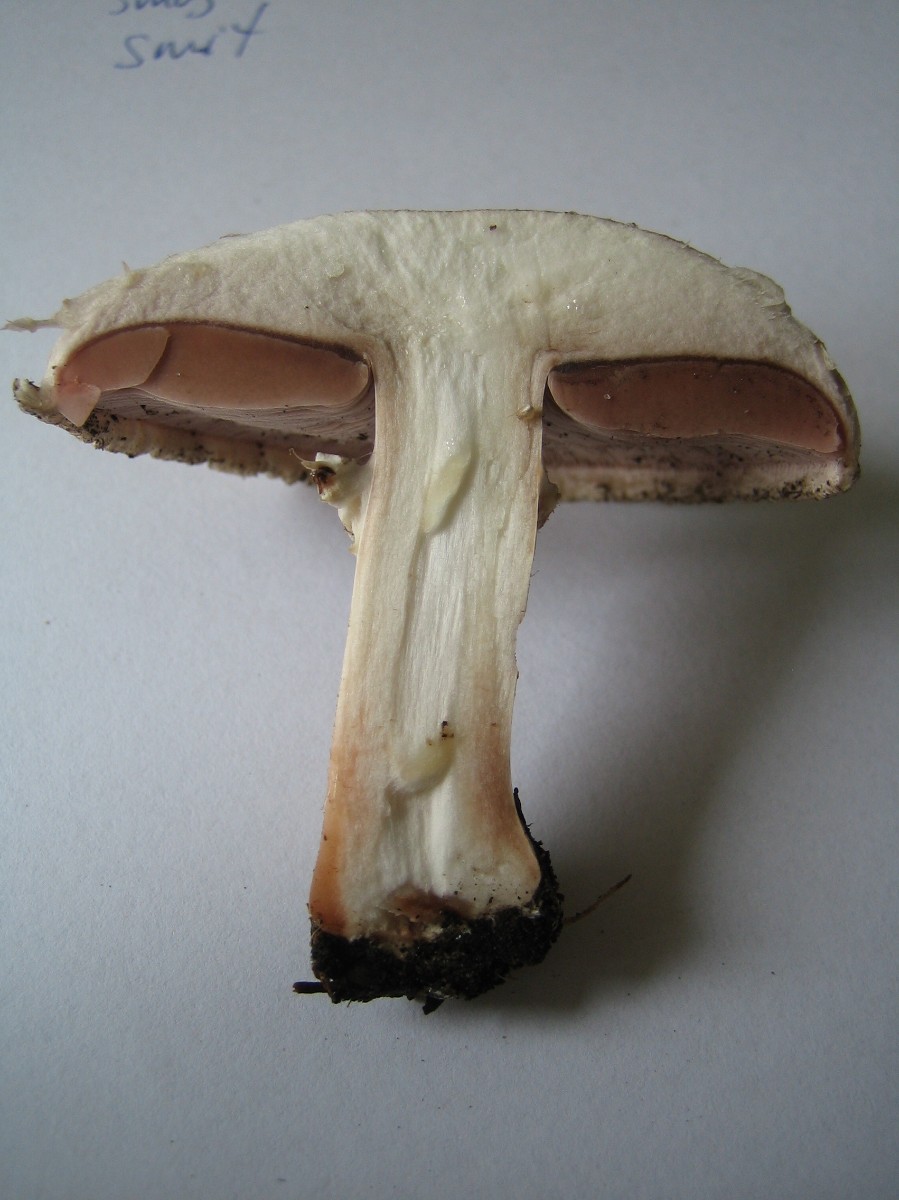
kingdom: Fungi
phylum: Basidiomycota
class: Agaricomycetes
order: Agaricales
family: Agaricaceae
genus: Agaricus
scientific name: Agaricus
